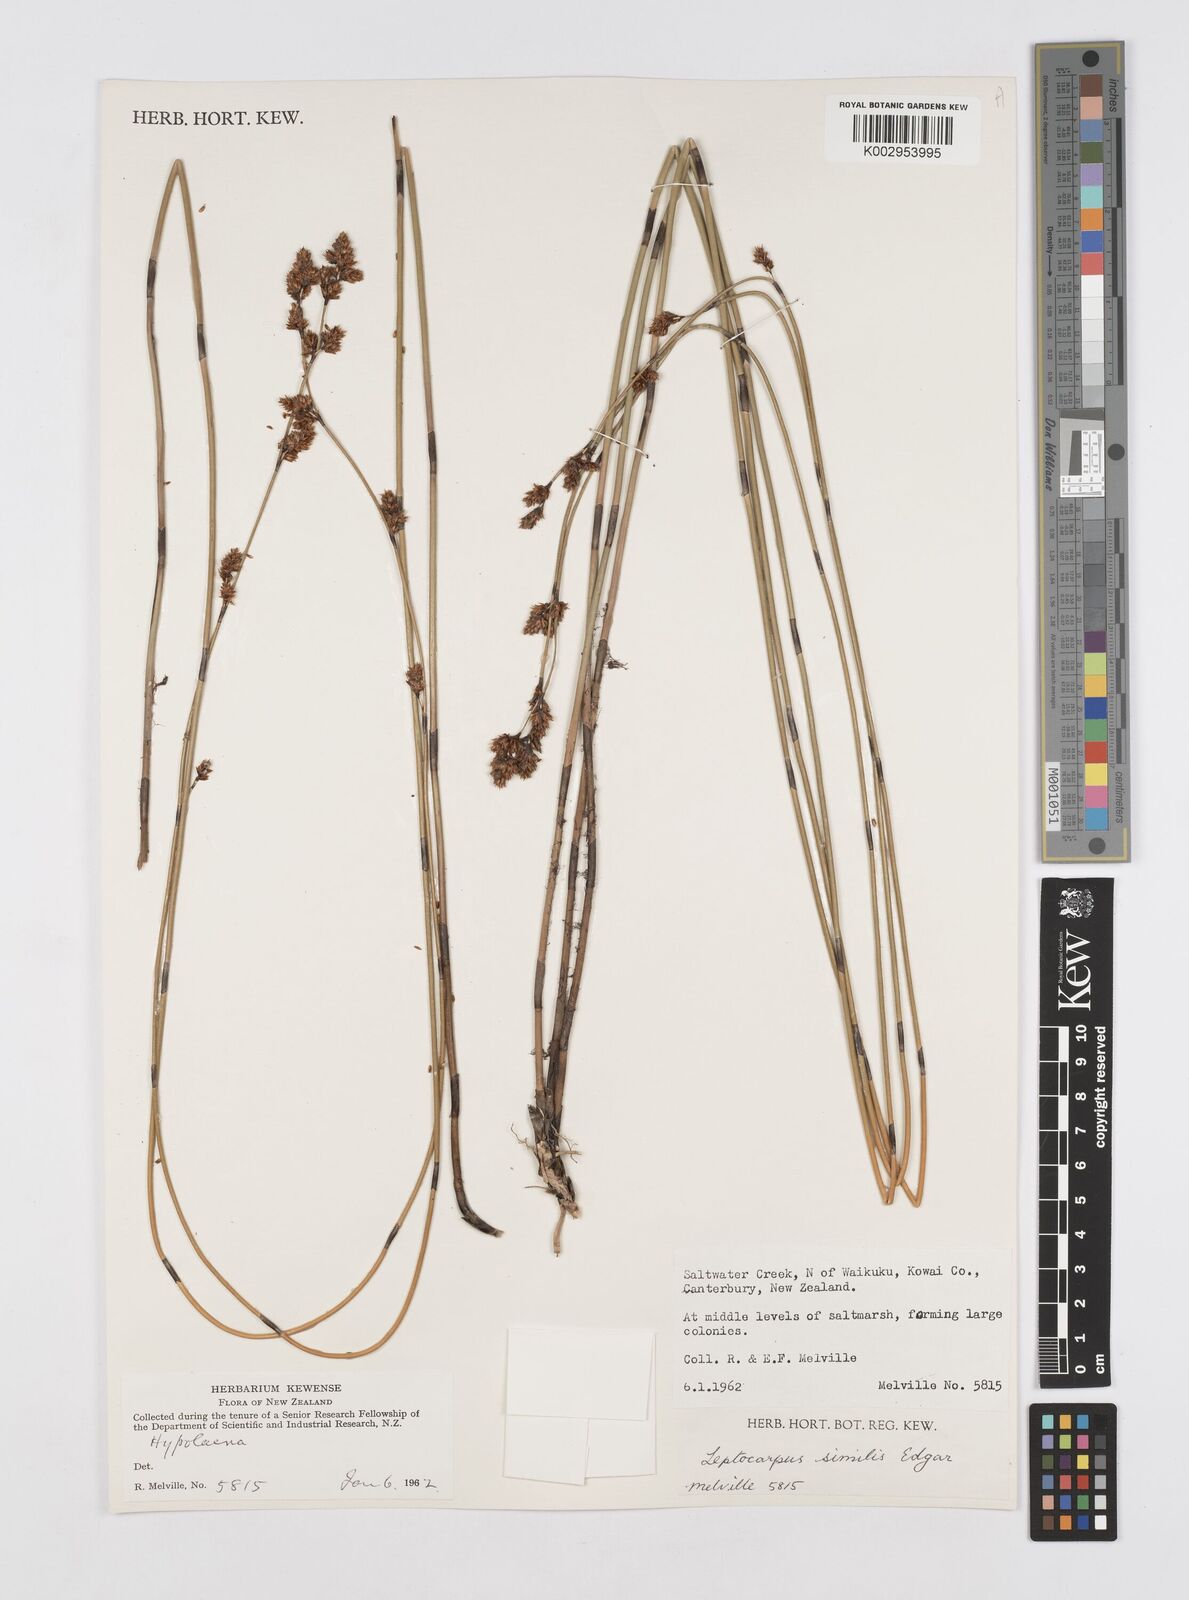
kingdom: Plantae
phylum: Tracheophyta
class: Liliopsida
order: Poales
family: Restionaceae
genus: Apodasmia
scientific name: Apodasmia similis
